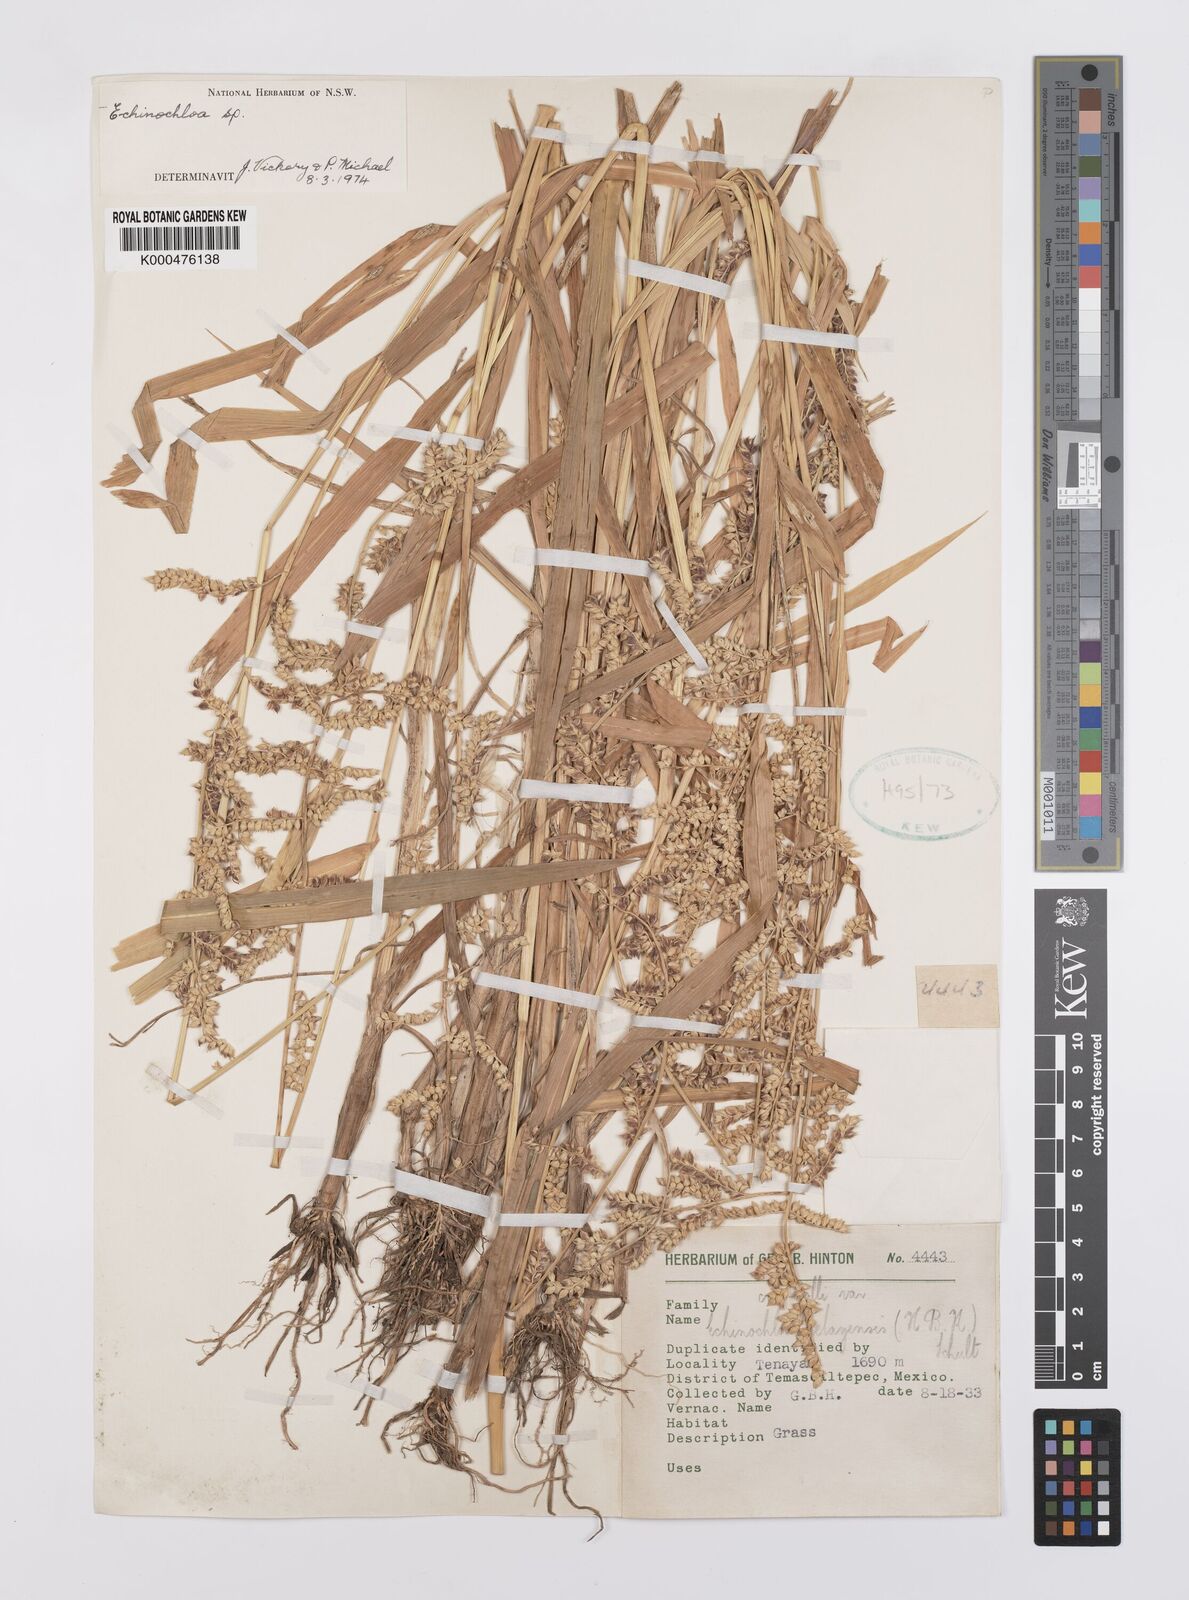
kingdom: Plantae
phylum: Tracheophyta
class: Liliopsida
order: Poales
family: Poaceae
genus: Echinochloa
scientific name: Echinochloa crus-pavonis
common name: Gulf cockspur grass
